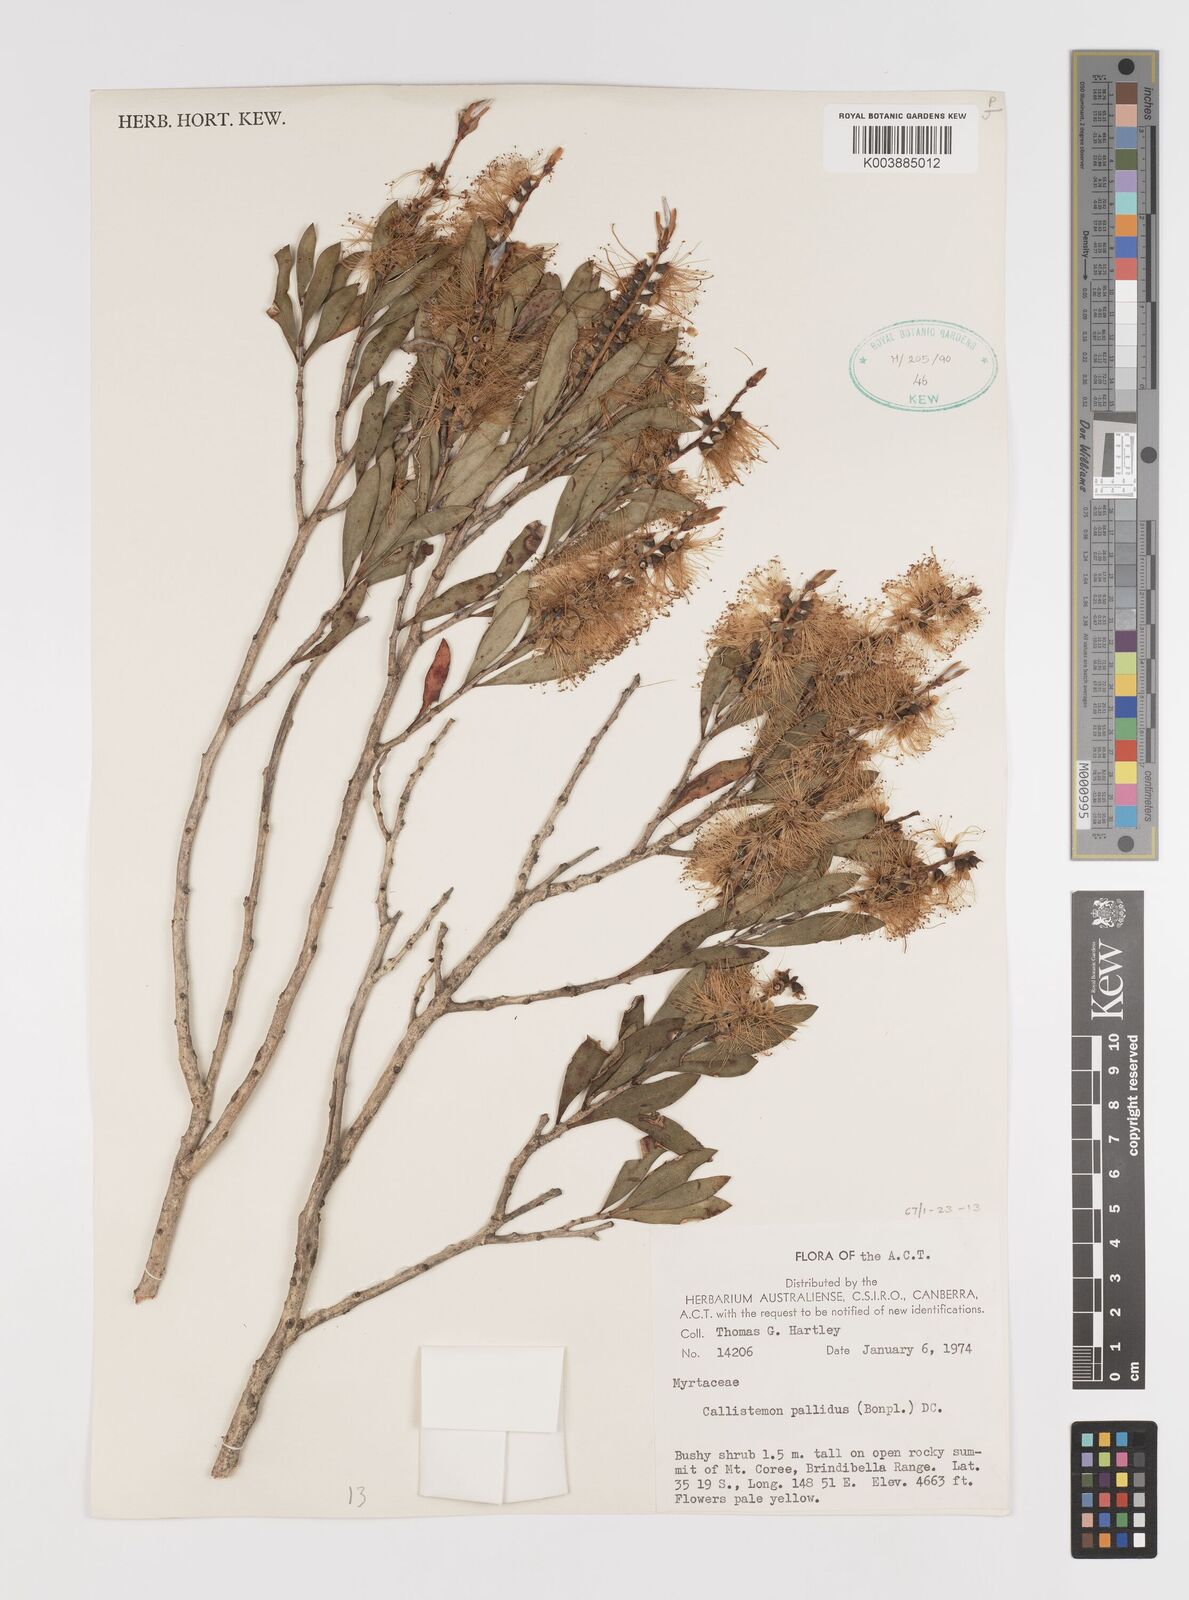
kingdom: Plantae
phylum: Tracheophyta
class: Magnoliopsida
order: Myrtales
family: Myrtaceae
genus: Melaleuca
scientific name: Melaleuca pallida
